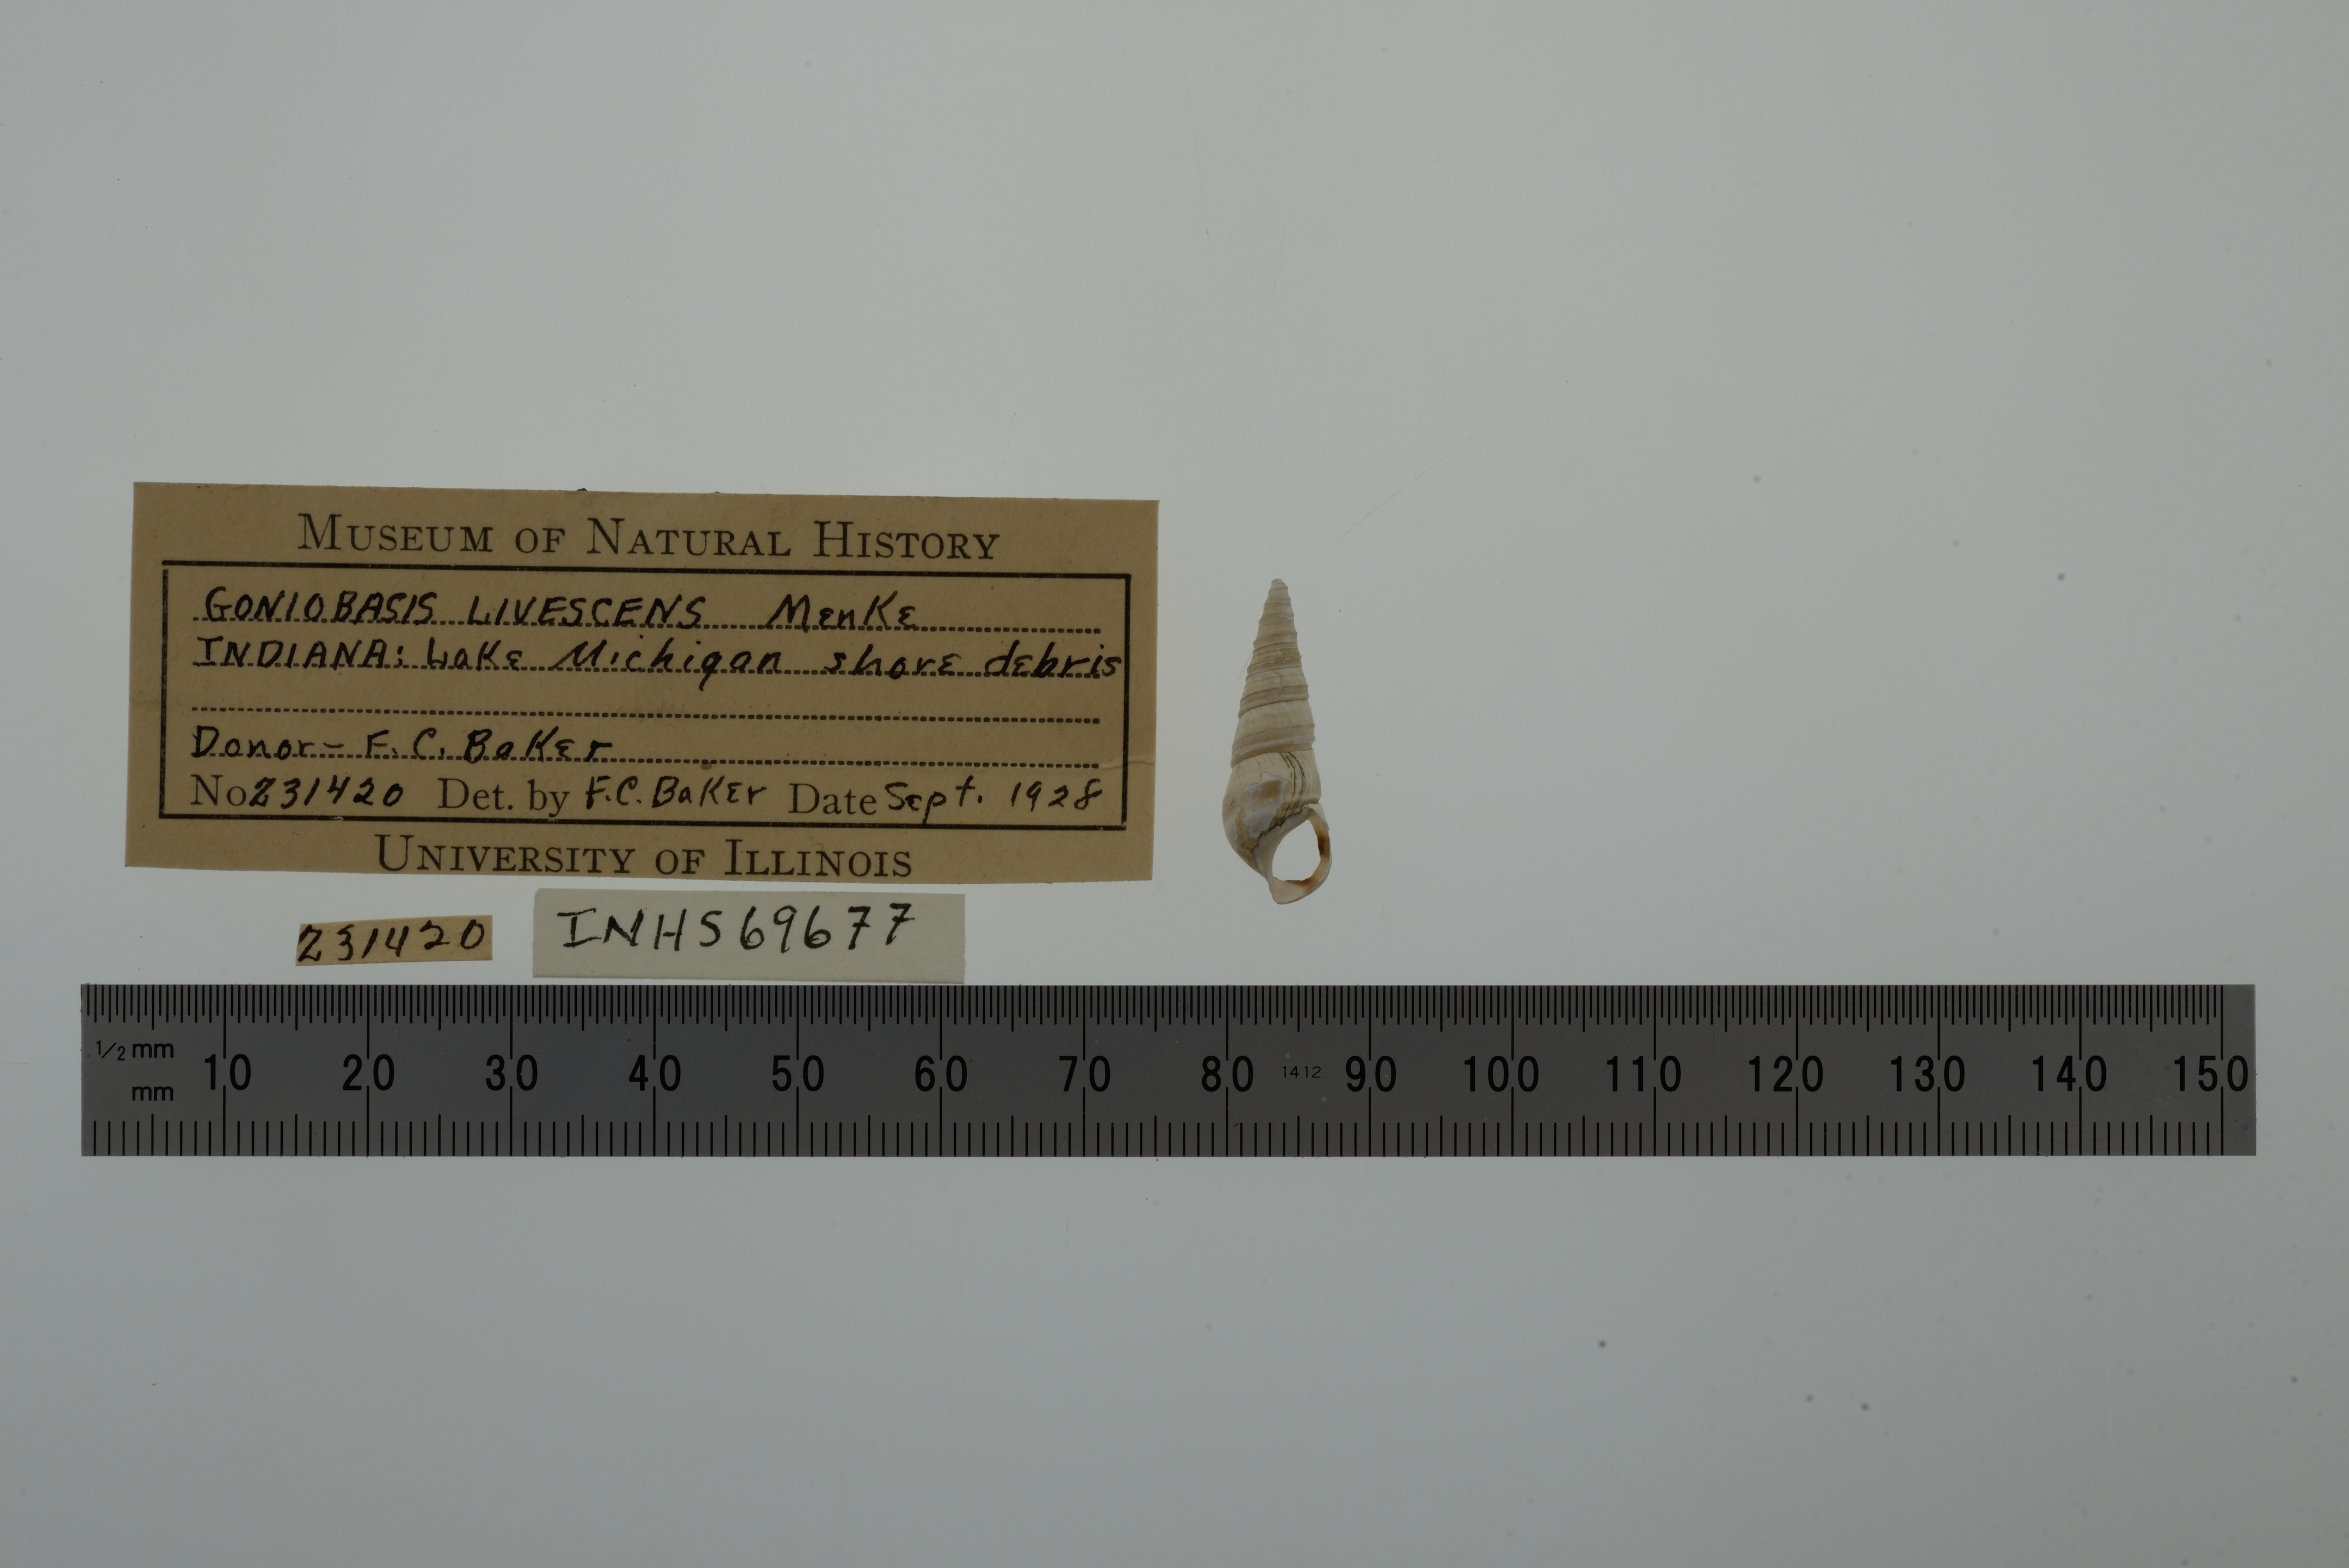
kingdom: Animalia
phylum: Mollusca
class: Gastropoda
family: Pleuroceridae
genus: Pleurocera
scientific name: Pleurocera acuta
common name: Sharp hornsnail
